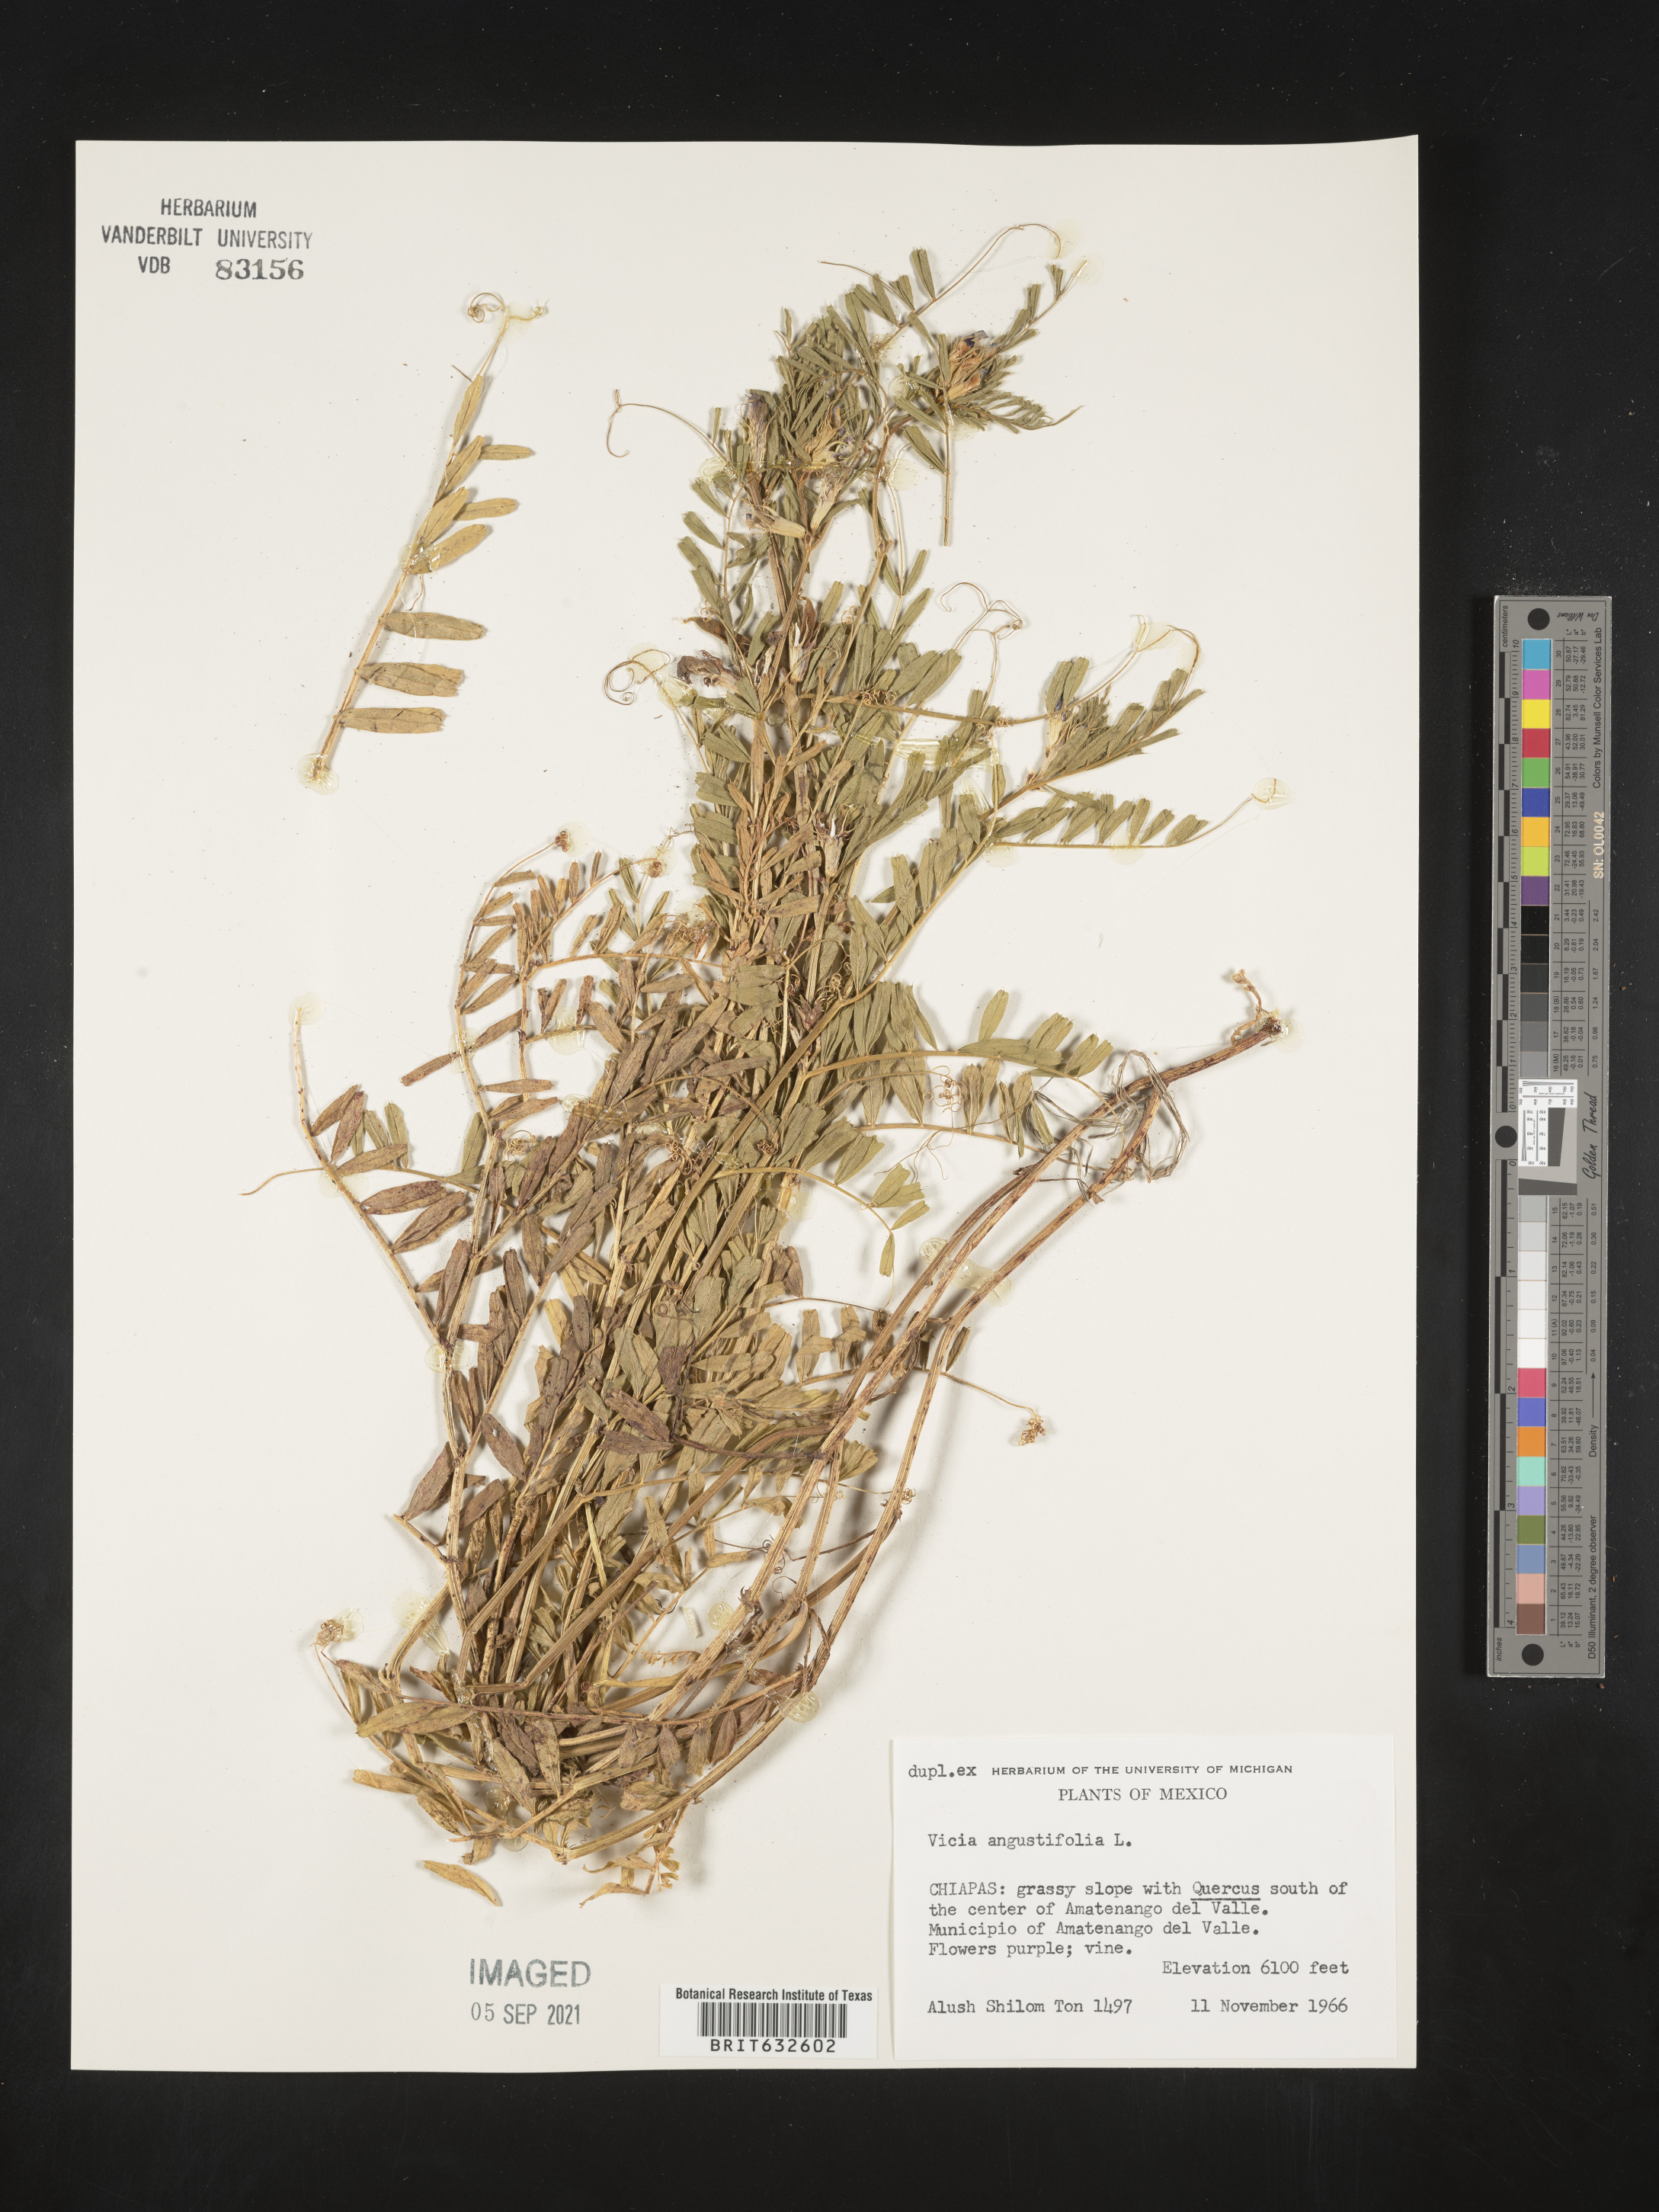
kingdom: Plantae
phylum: Tracheophyta
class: Magnoliopsida
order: Fabales
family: Fabaceae
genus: Vicia
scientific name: Vicia
